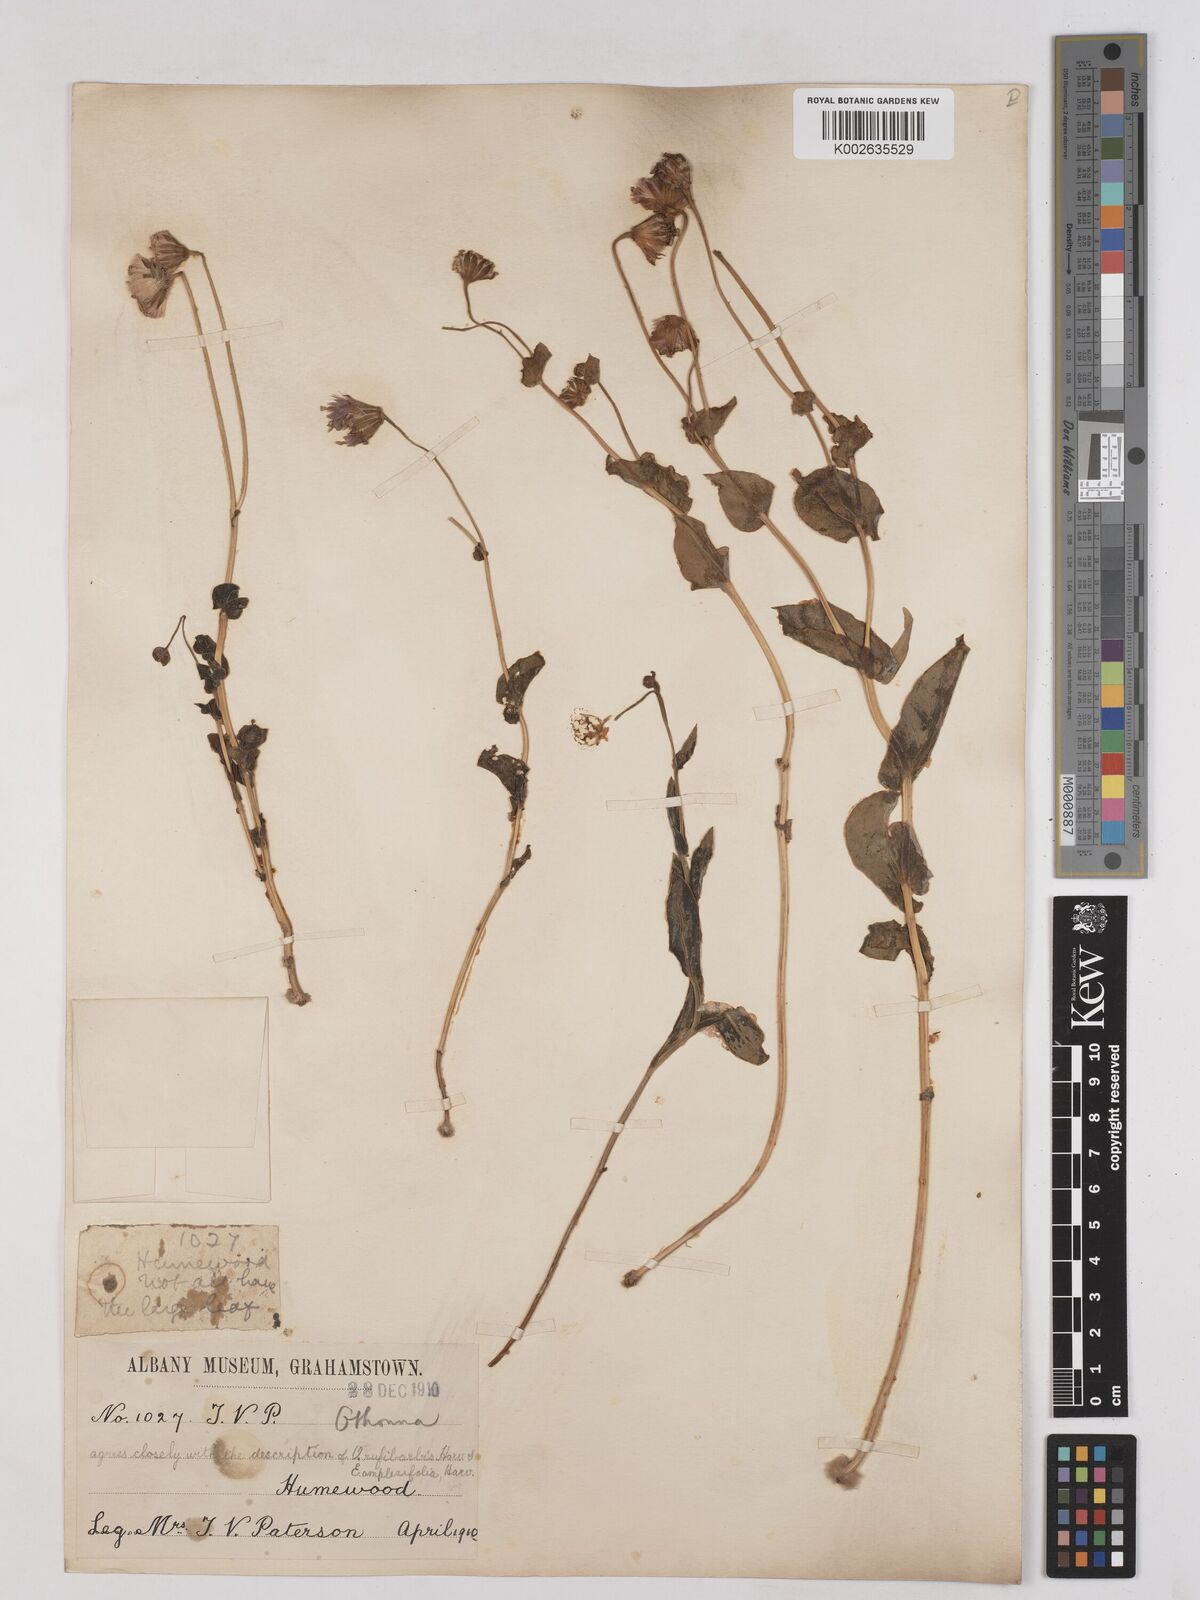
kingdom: Plantae
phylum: Tracheophyta
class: Magnoliopsida
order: Asterales
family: Asteraceae
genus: Othonna
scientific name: Othonna rufibarbis
